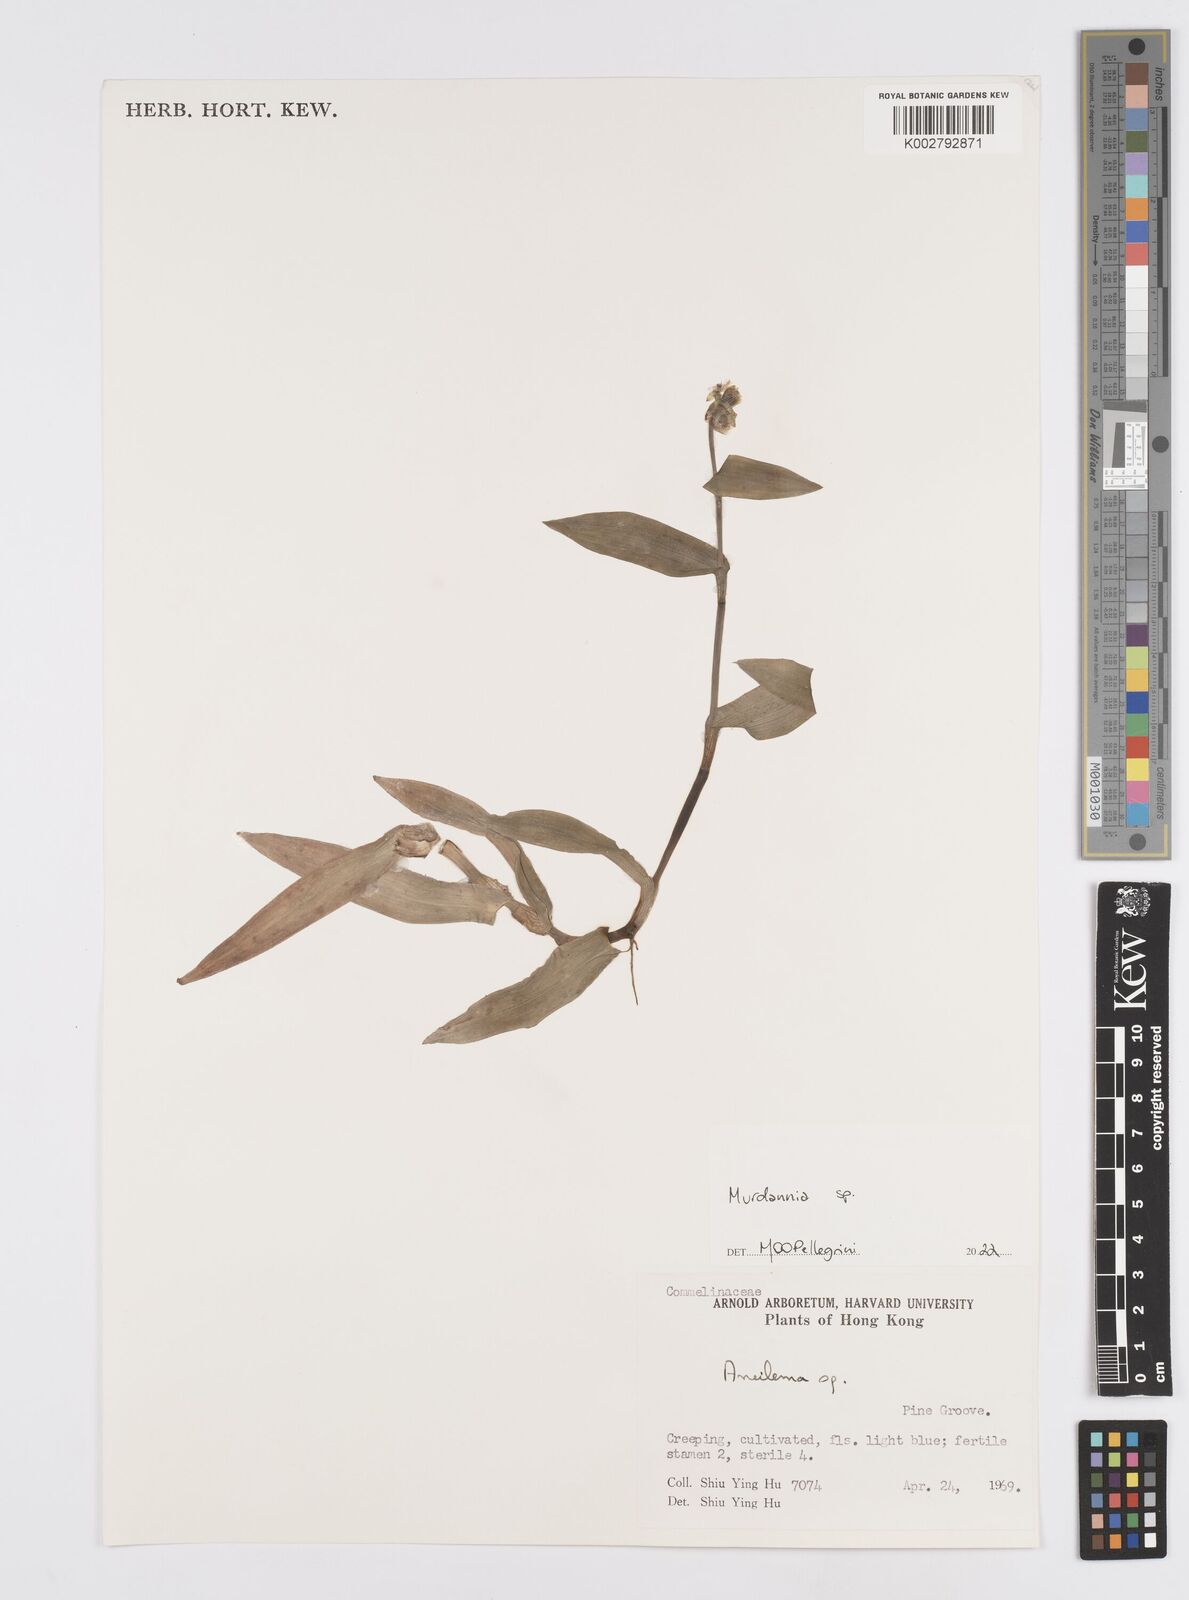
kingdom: Plantae
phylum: Tracheophyta
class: Liliopsida
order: Commelinales
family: Commelinaceae
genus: Murdannia
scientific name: Murdannia
